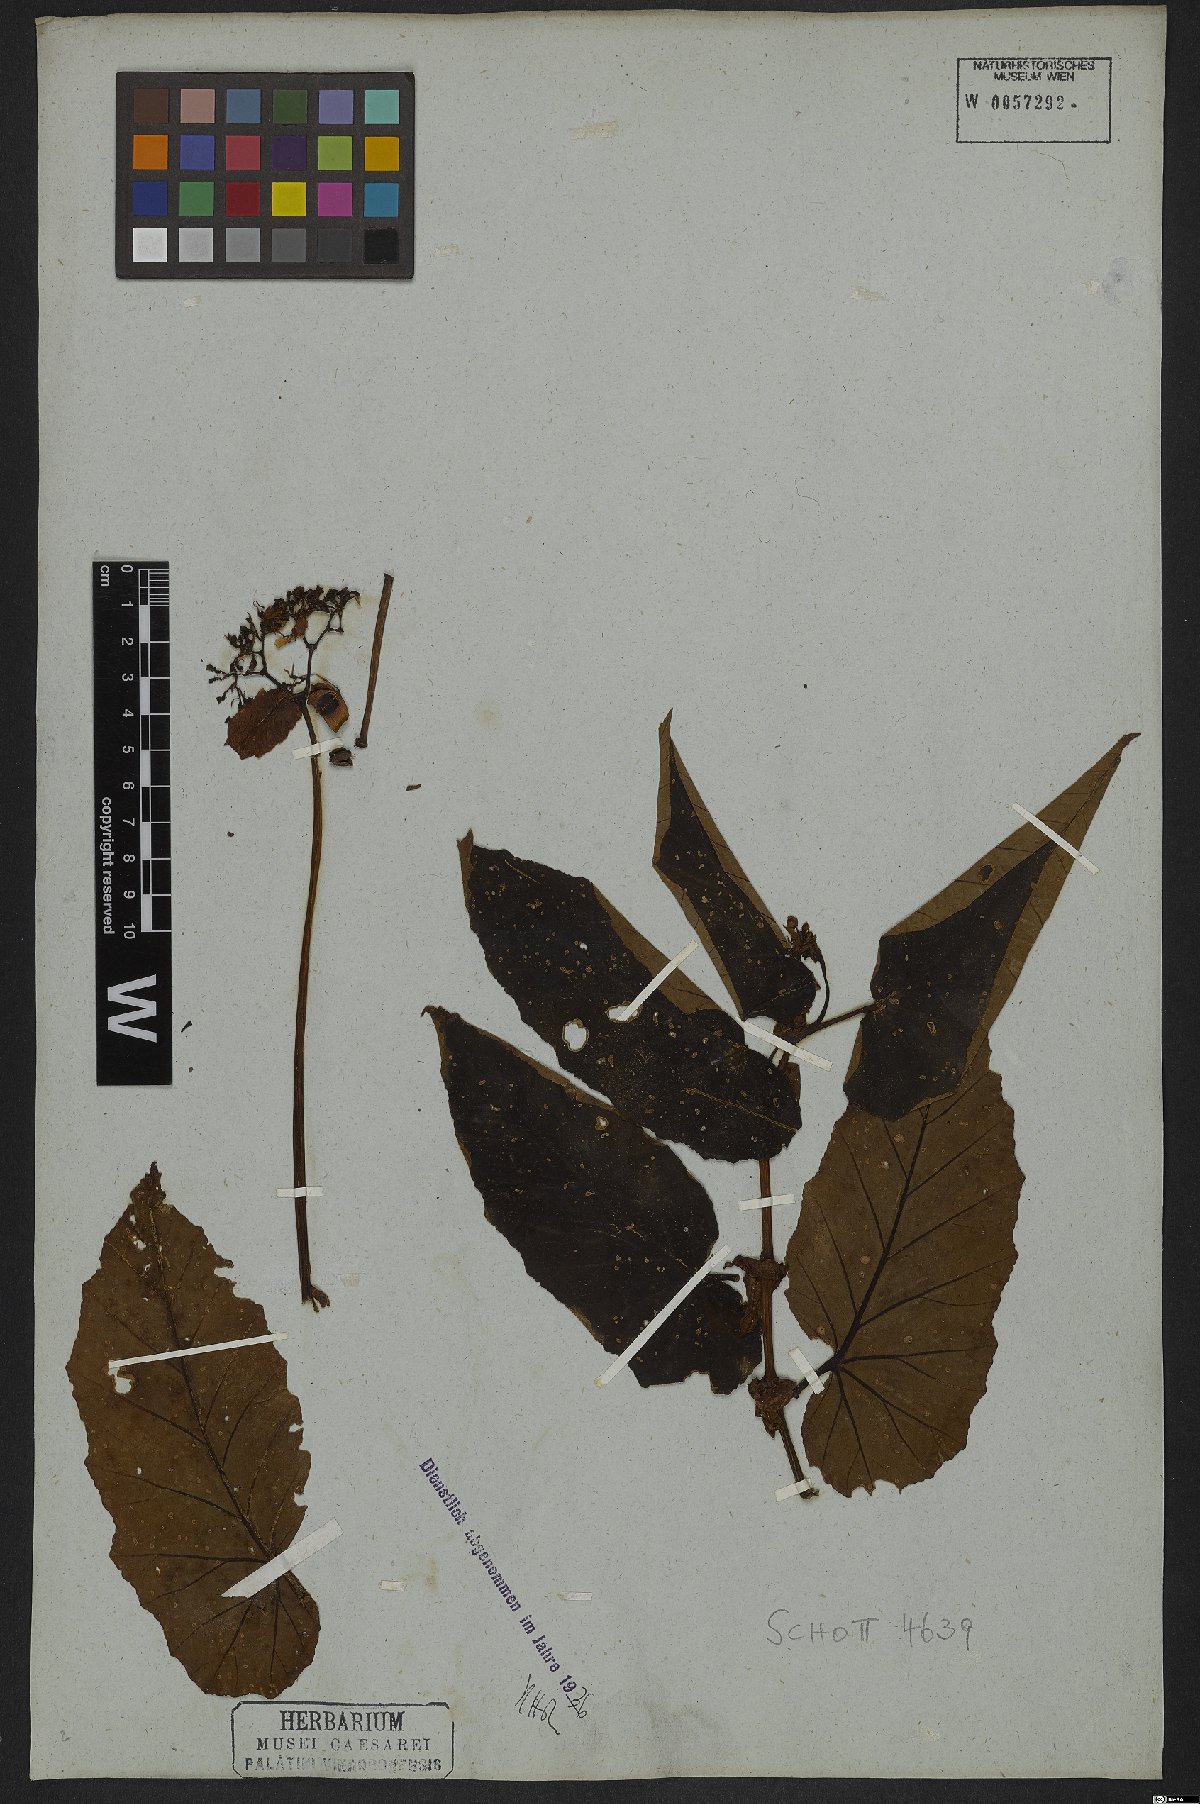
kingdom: Plantae
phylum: Tracheophyta
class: Magnoliopsida
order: Cucurbitales
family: Begoniaceae
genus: Begonia
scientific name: Begonia angularis
